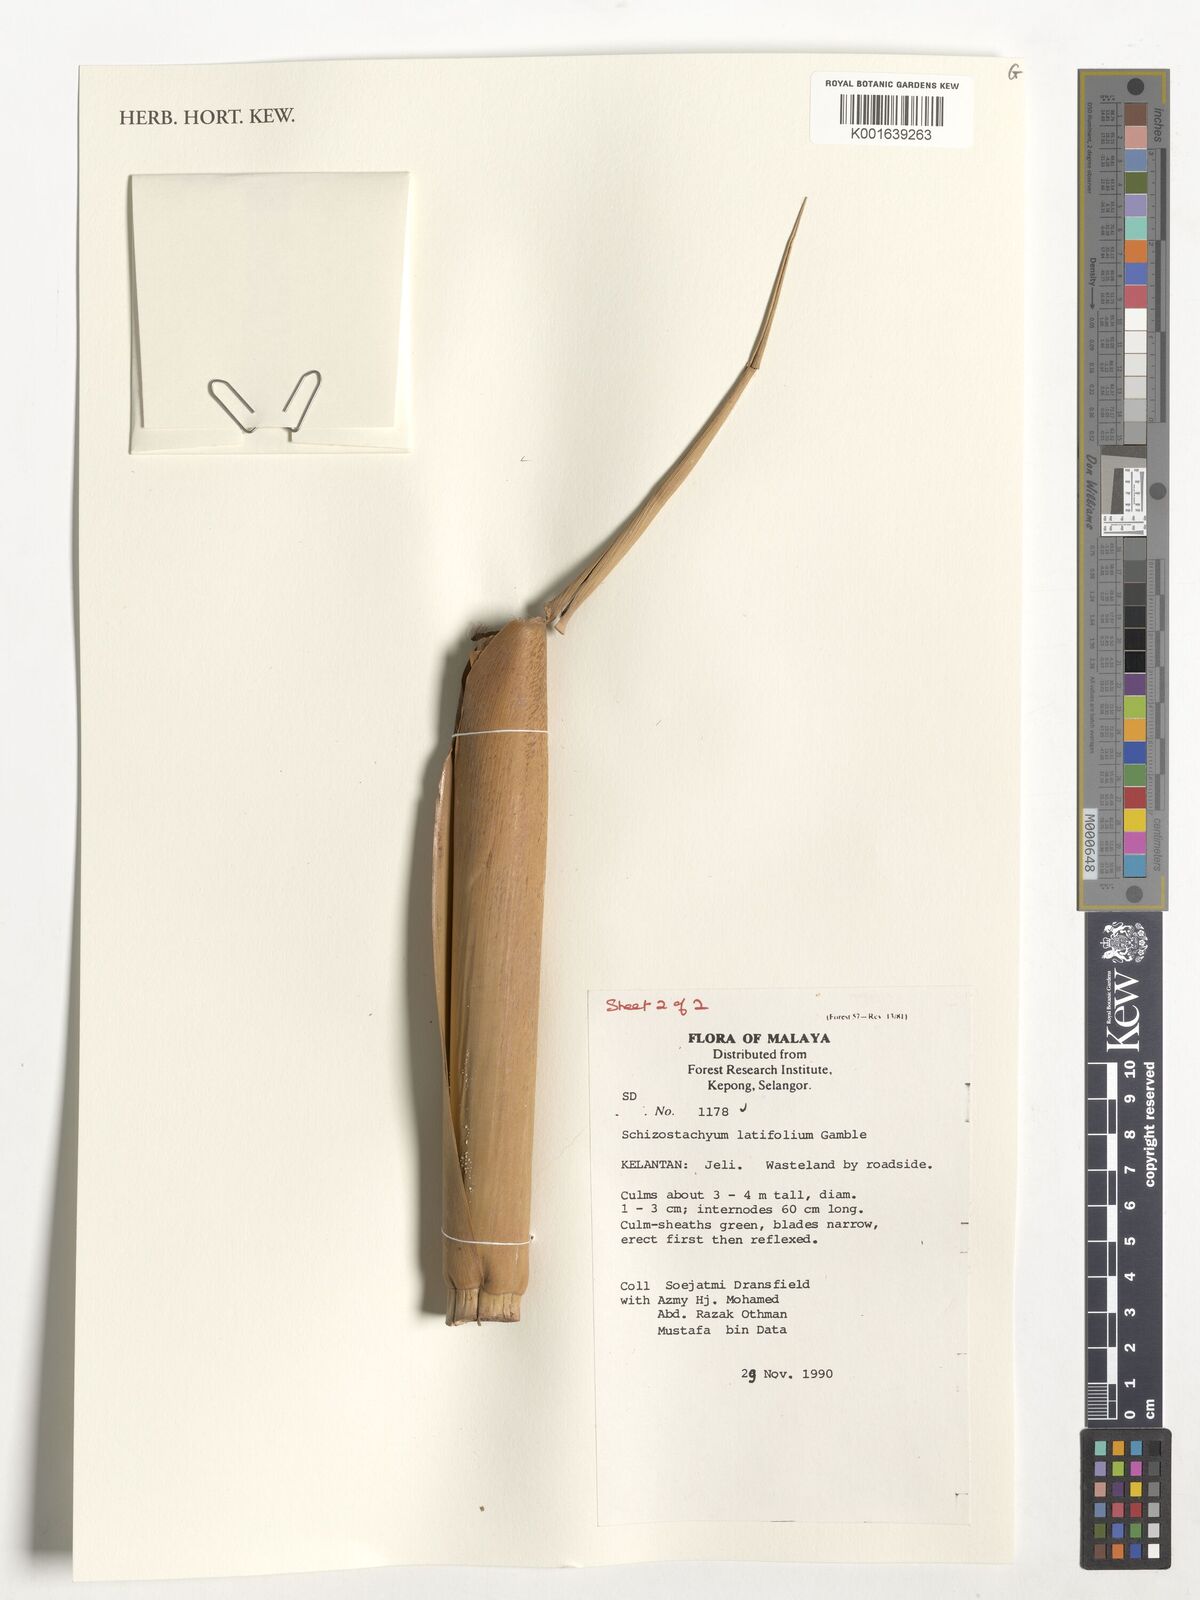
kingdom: Plantae
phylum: Tracheophyta
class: Liliopsida
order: Poales
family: Poaceae
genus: Schizostachyum
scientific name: Schizostachyum latifolium
